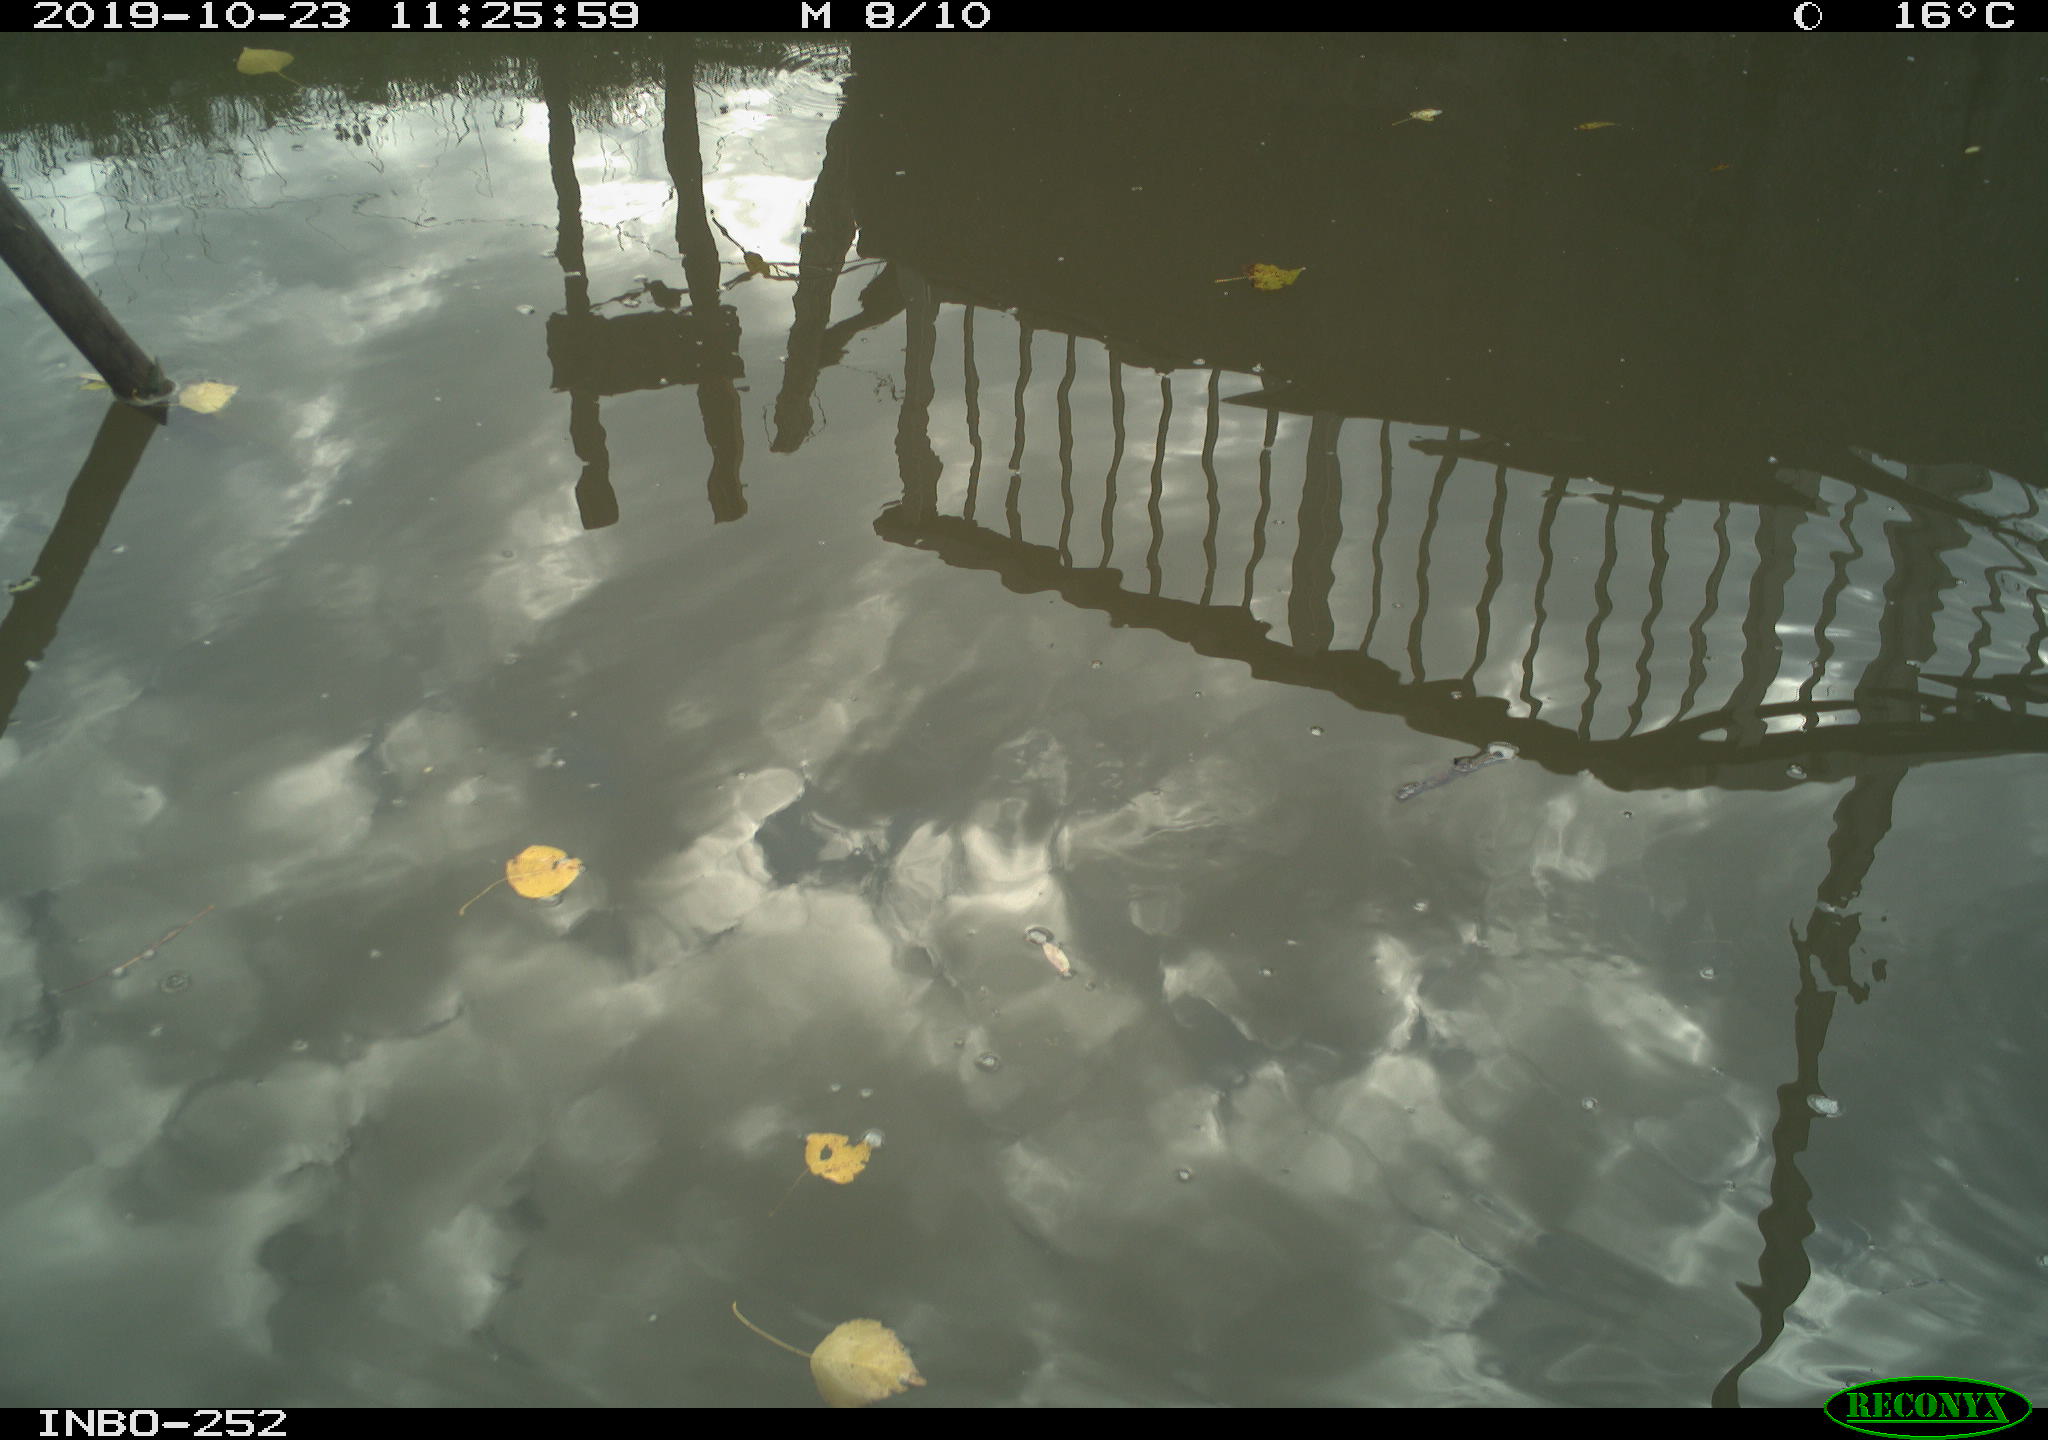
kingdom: Animalia
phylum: Chordata
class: Aves
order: Gruiformes
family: Rallidae
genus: Gallinula
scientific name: Gallinula chloropus
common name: Common moorhen
